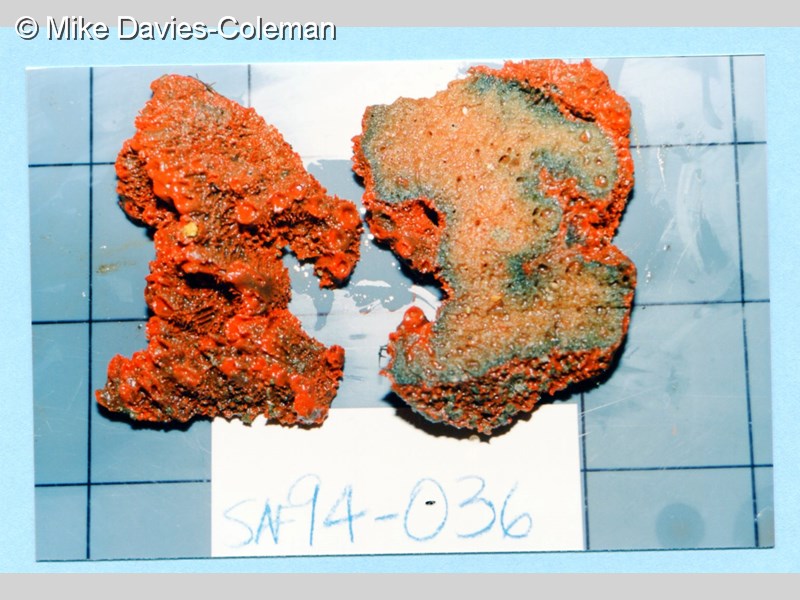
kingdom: Animalia
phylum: Porifera
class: Demospongiae
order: Bubarida
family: Dictyonellidae
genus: Acanthella
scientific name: Acanthella
